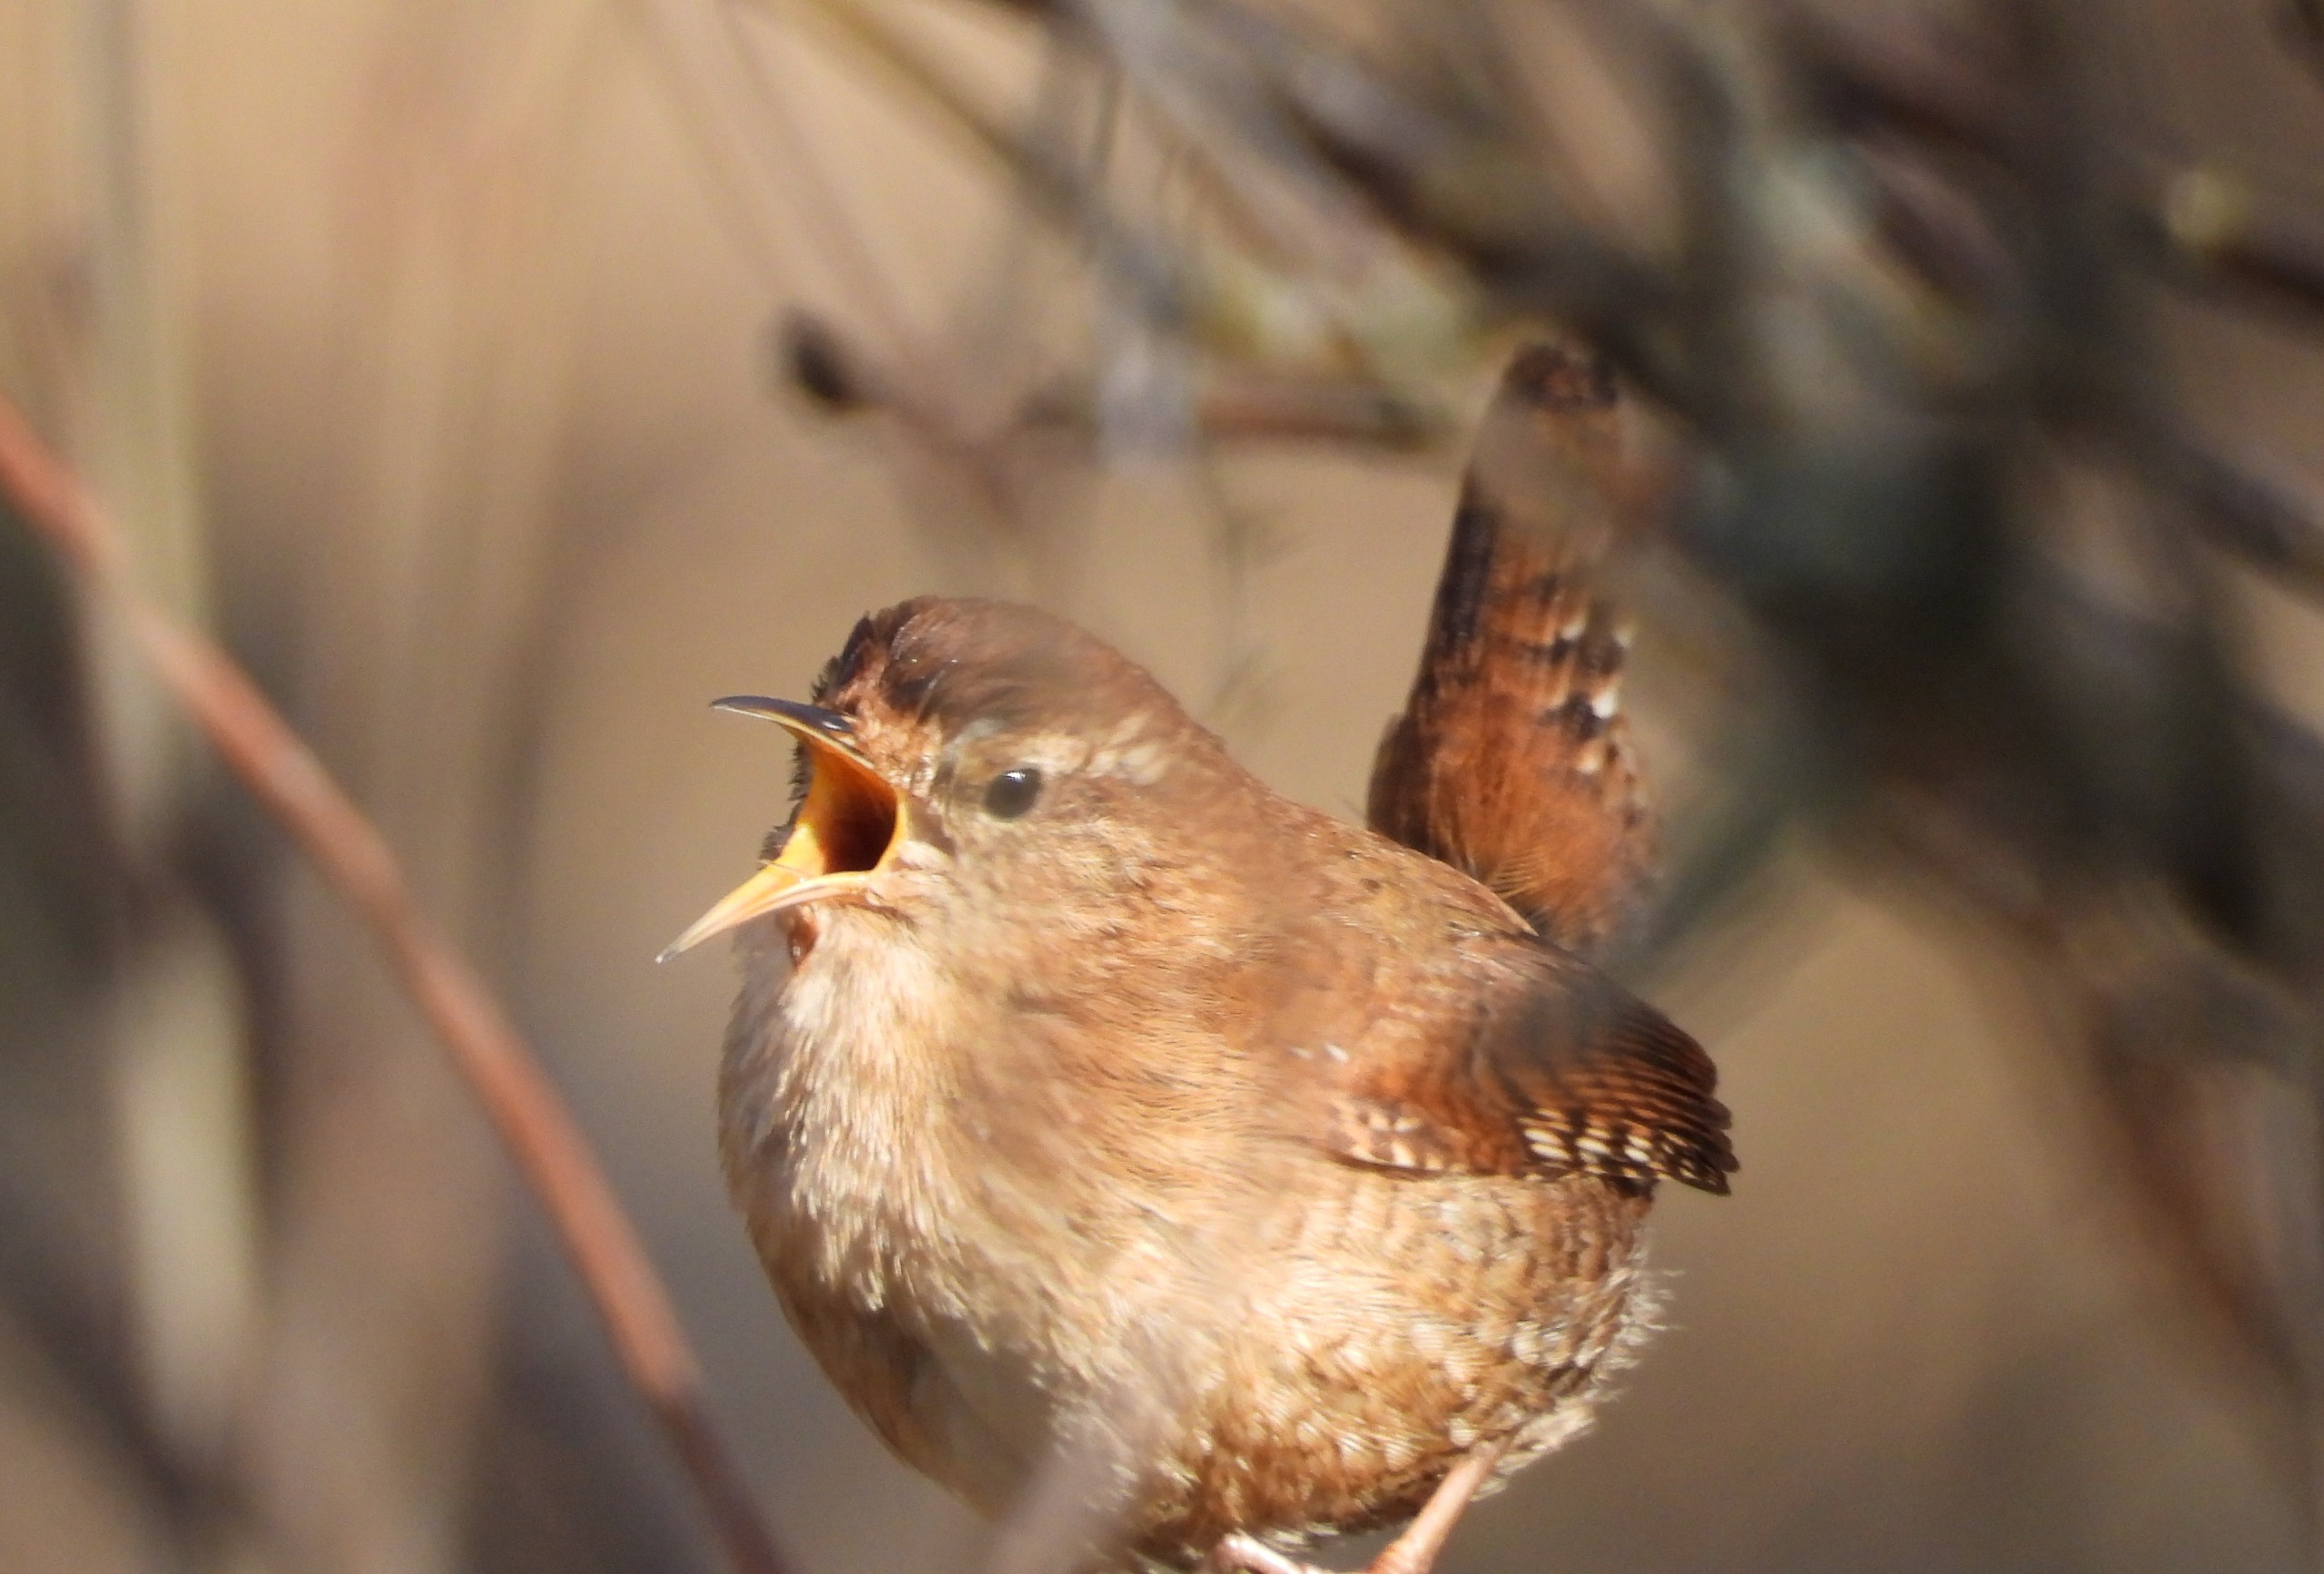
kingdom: Animalia
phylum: Chordata
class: Aves
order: Passeriformes
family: Troglodytidae
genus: Troglodytes
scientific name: Troglodytes troglodytes
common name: Gærdesmutte
